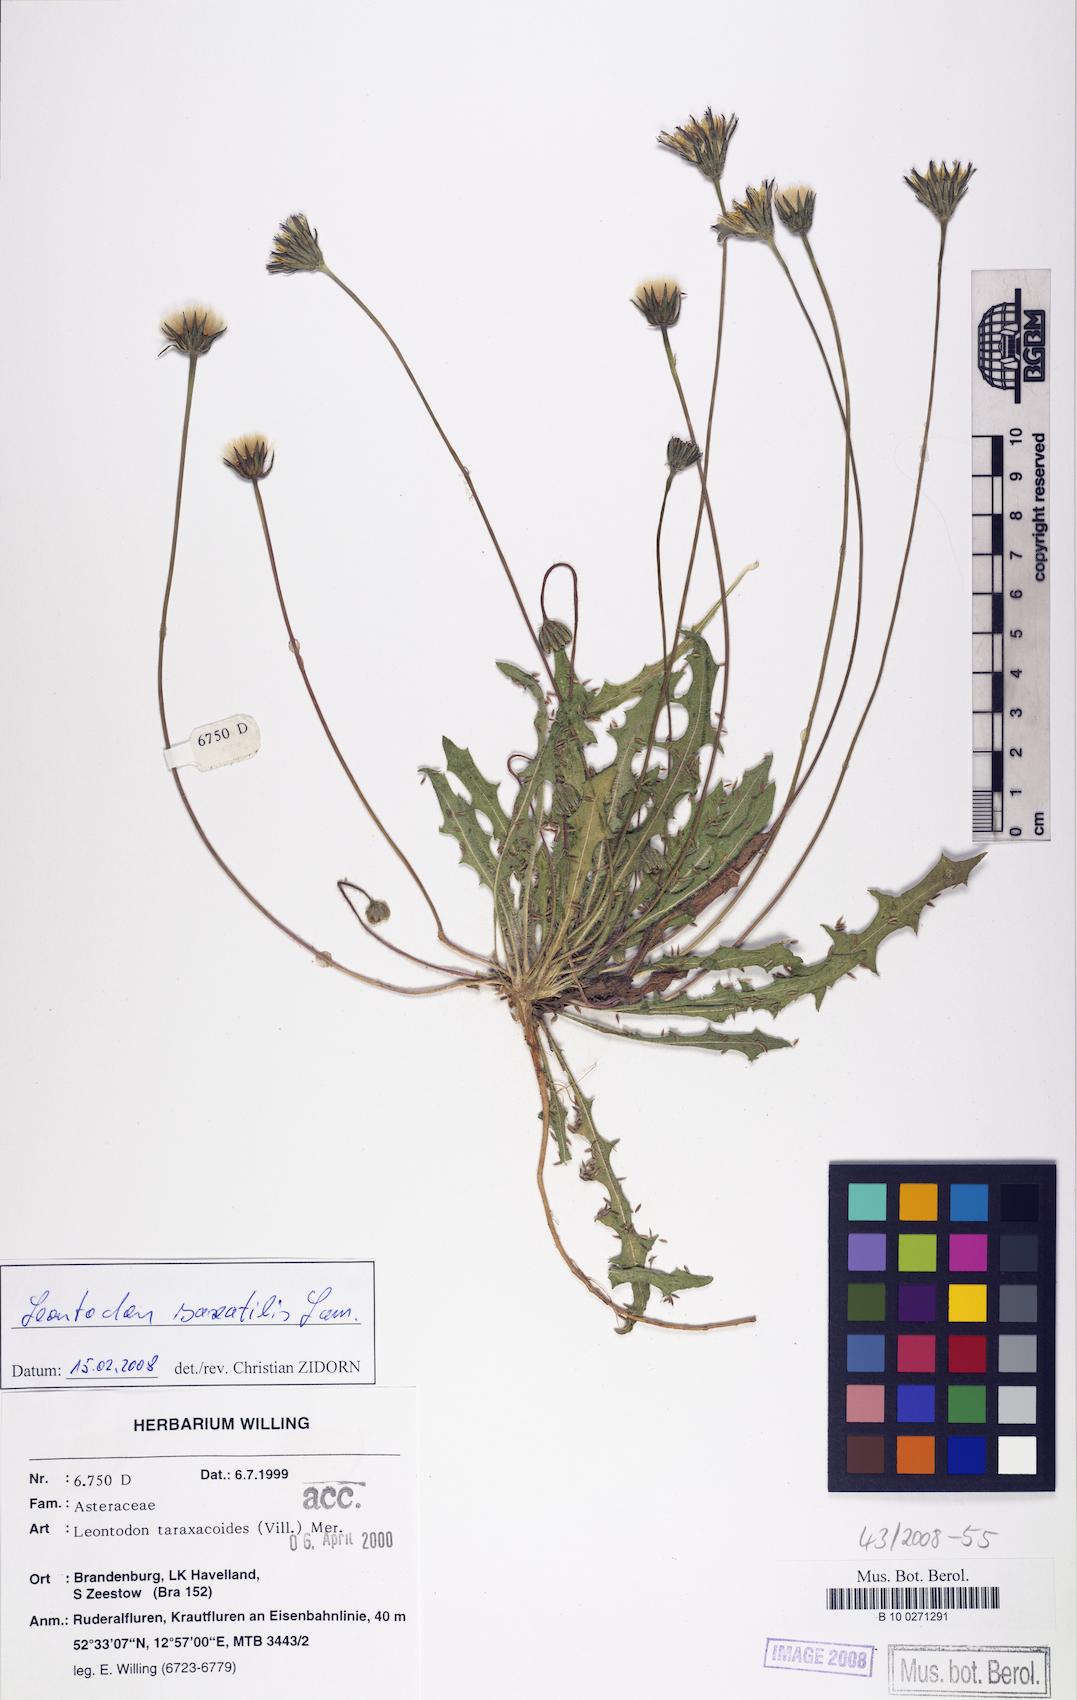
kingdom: Plantae
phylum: Tracheophyta
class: Magnoliopsida
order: Asterales
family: Asteraceae
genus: Thrincia
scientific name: Thrincia saxatilis
